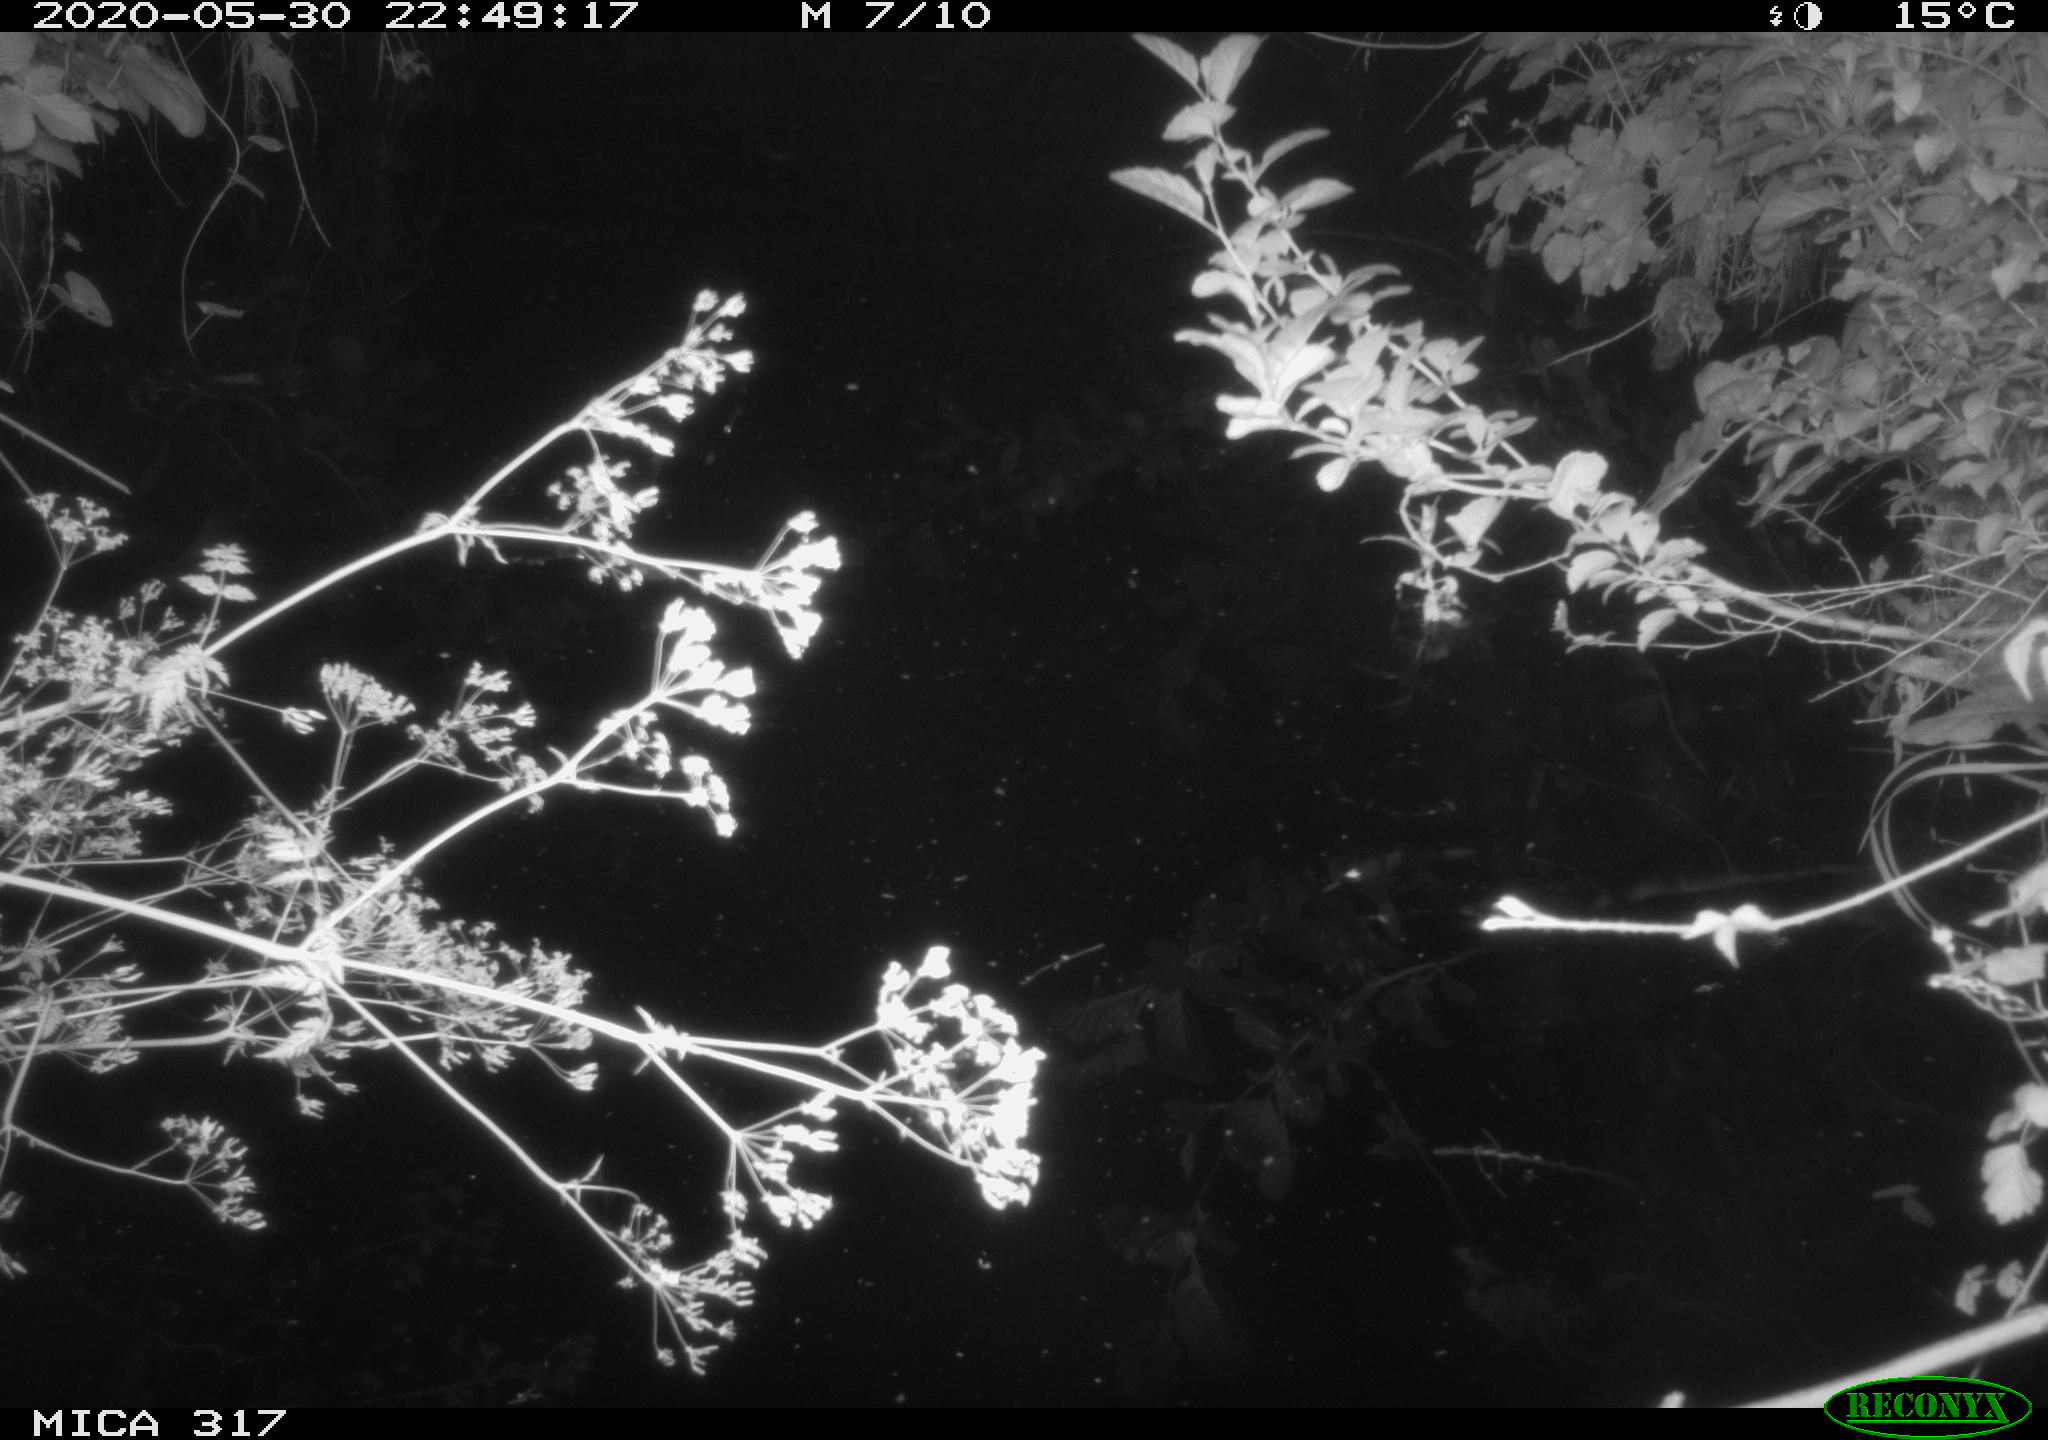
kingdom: Animalia
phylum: Chordata
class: Aves
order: Anseriformes
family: Anatidae
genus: Anas
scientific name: Anas platyrhynchos
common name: Mallard
